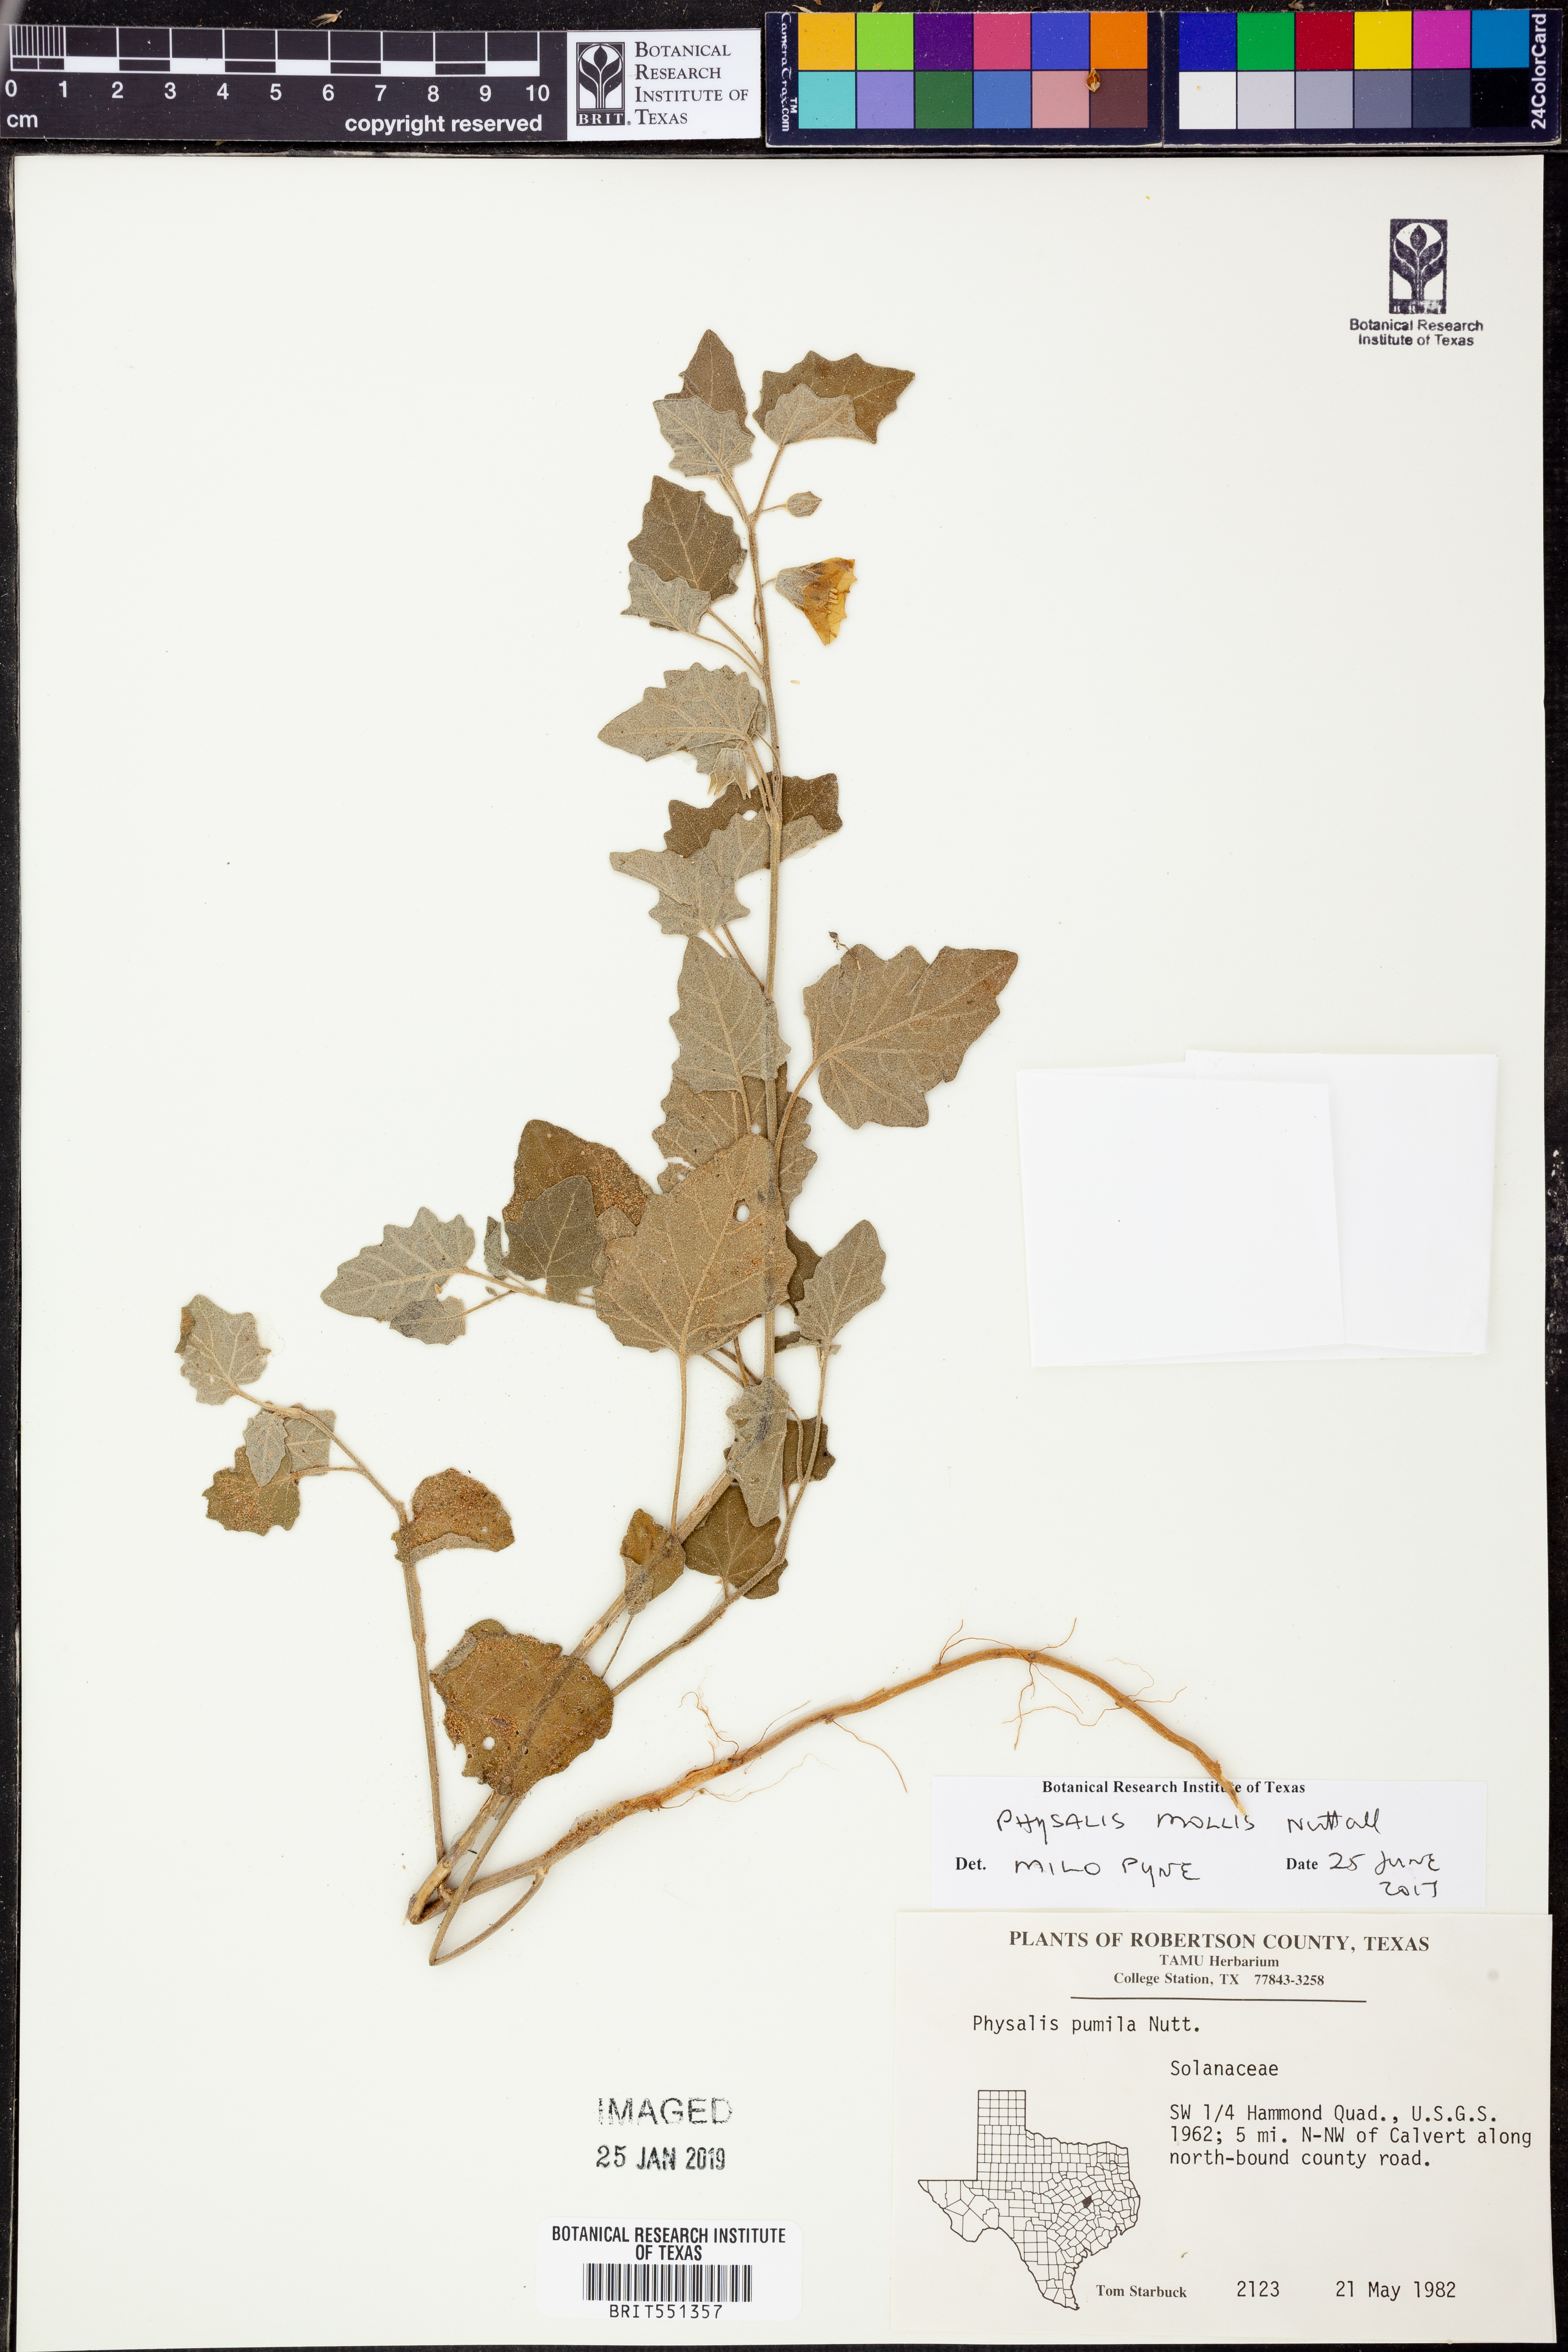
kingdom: Plantae
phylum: Tracheophyta
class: Magnoliopsida
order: Solanales
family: Solanaceae
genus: Physalis
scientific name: Physalis mollis
